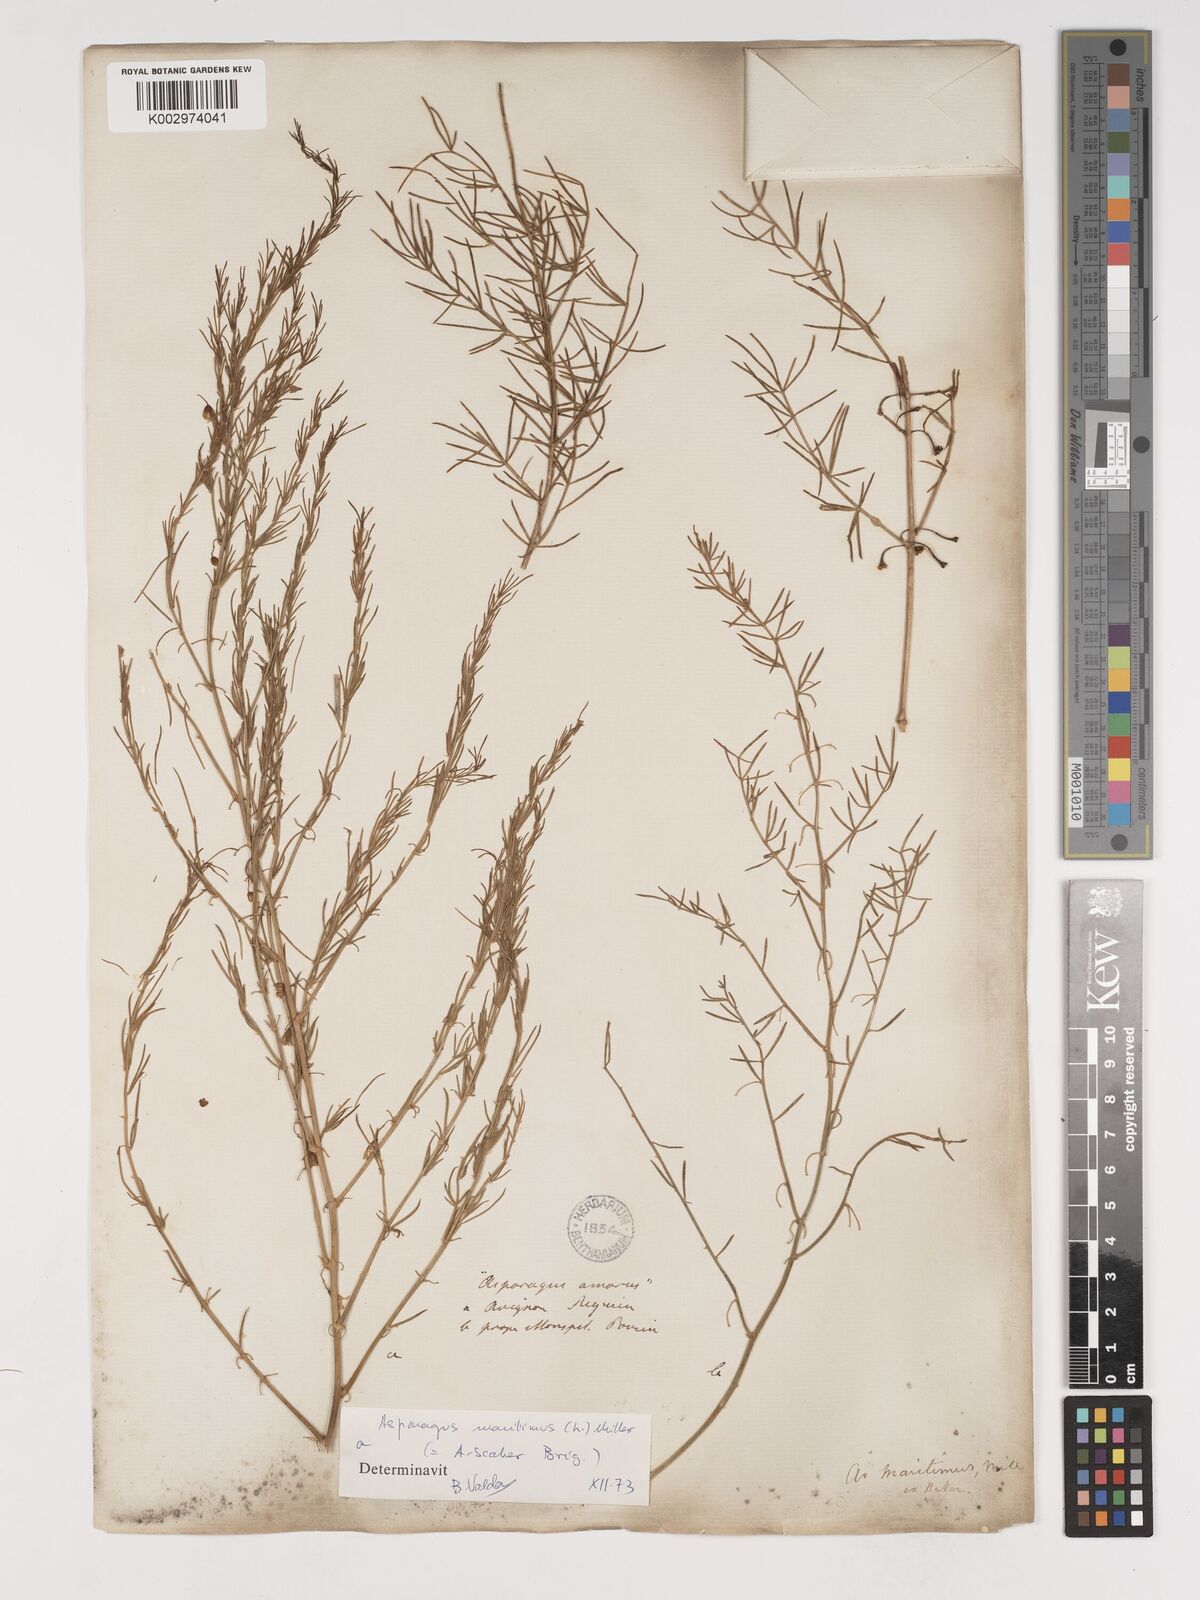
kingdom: Plantae
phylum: Tracheophyta
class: Liliopsida
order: Asparagales
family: Asparagaceae
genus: Asparagus
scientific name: Asparagus maritimus
